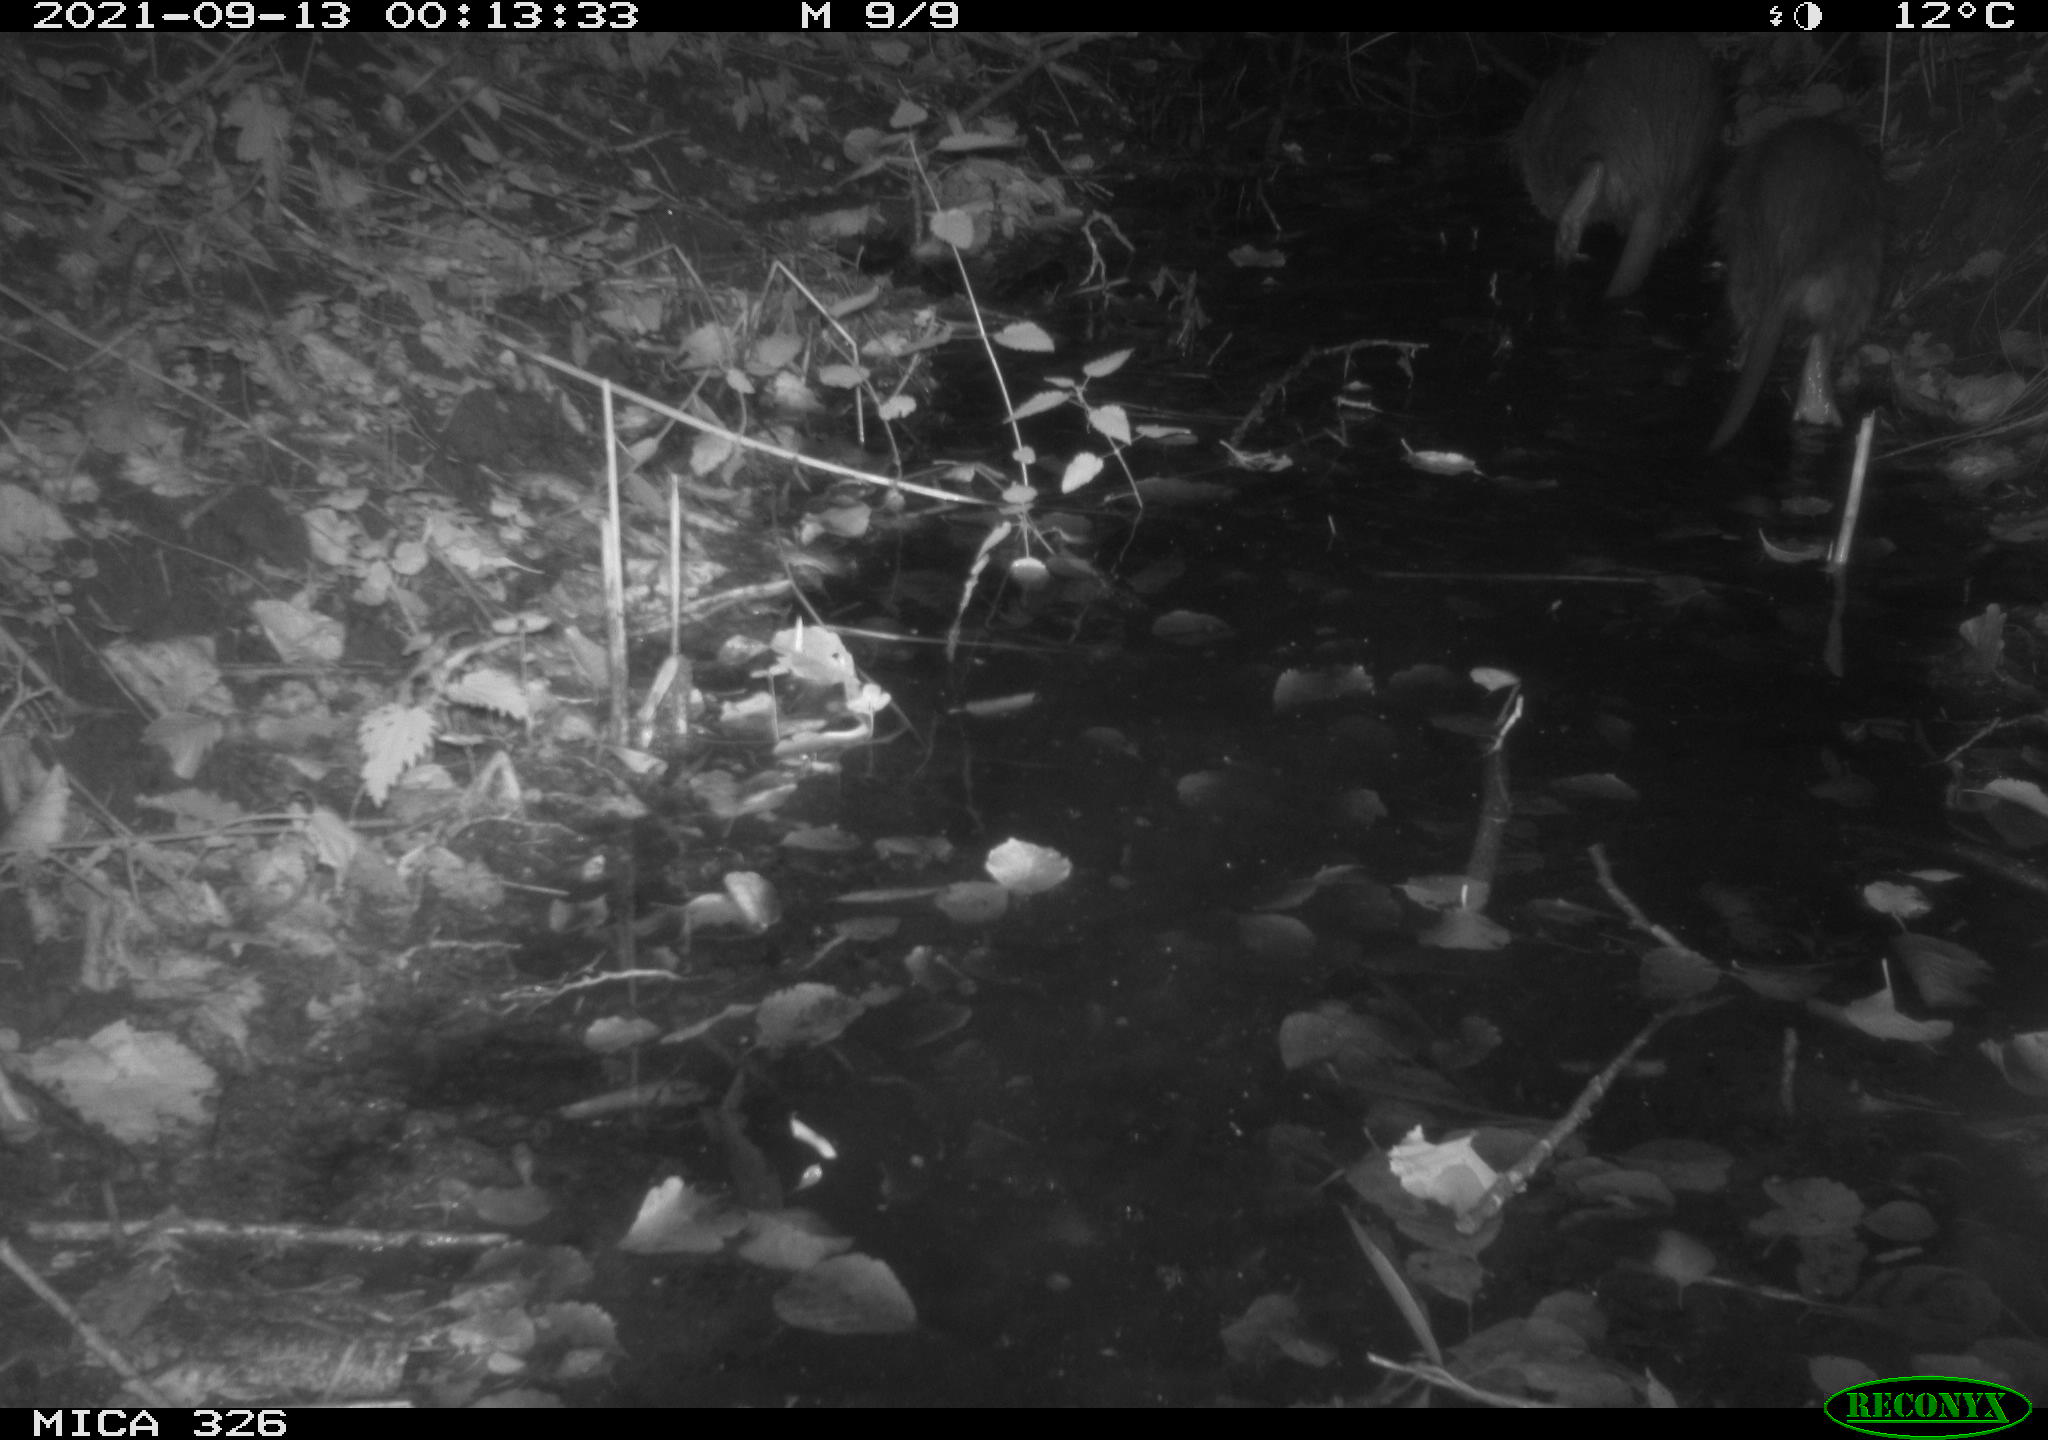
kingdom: Animalia
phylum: Chordata
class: Mammalia
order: Rodentia
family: Myocastoridae
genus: Myocastor
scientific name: Myocastor coypus
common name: Coypu
